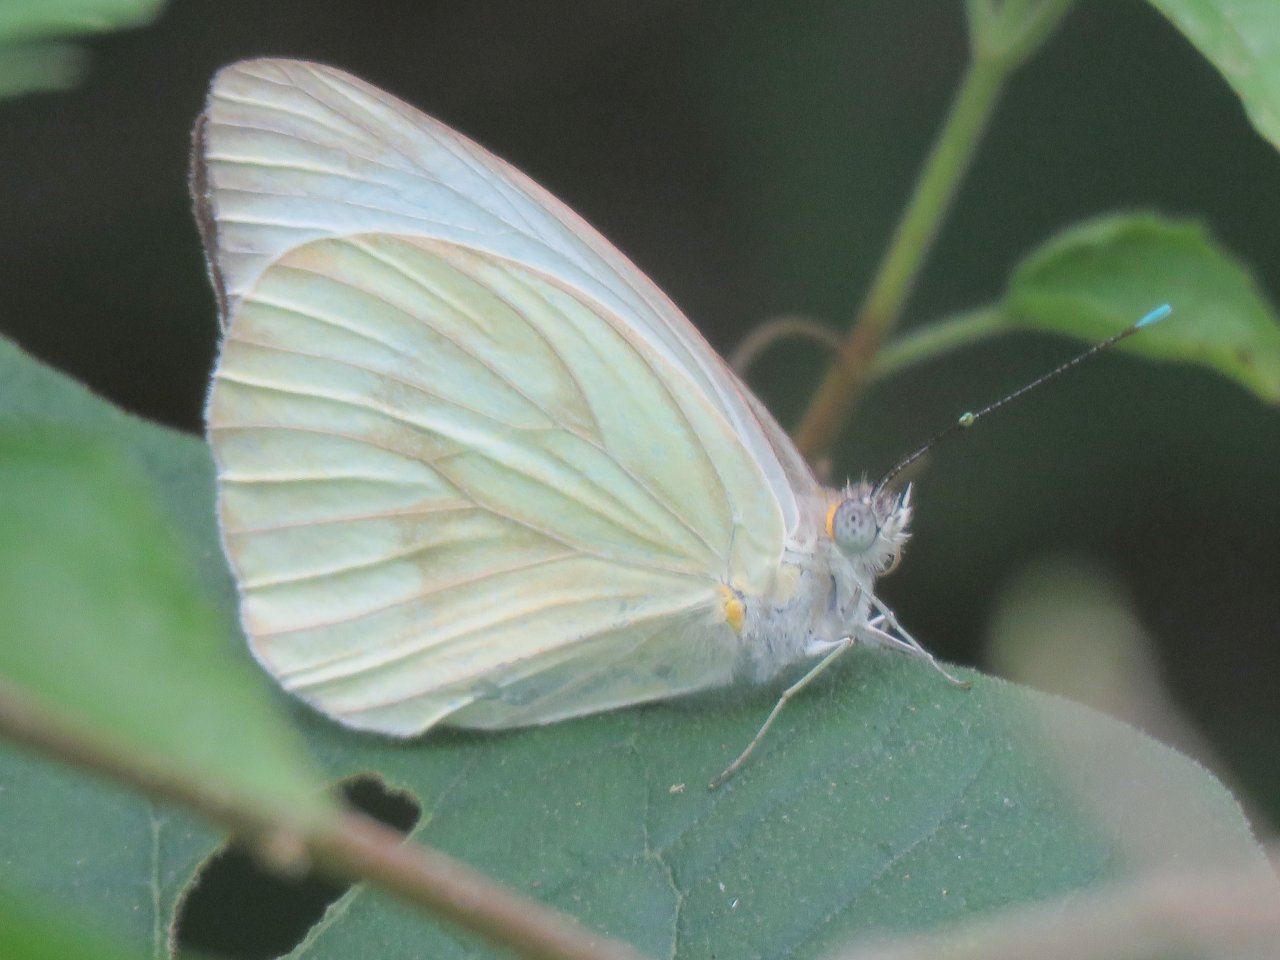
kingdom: Animalia
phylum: Arthropoda
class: Insecta
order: Lepidoptera
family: Pieridae
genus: Ascia
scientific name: Ascia monuste
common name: Great Southern White
